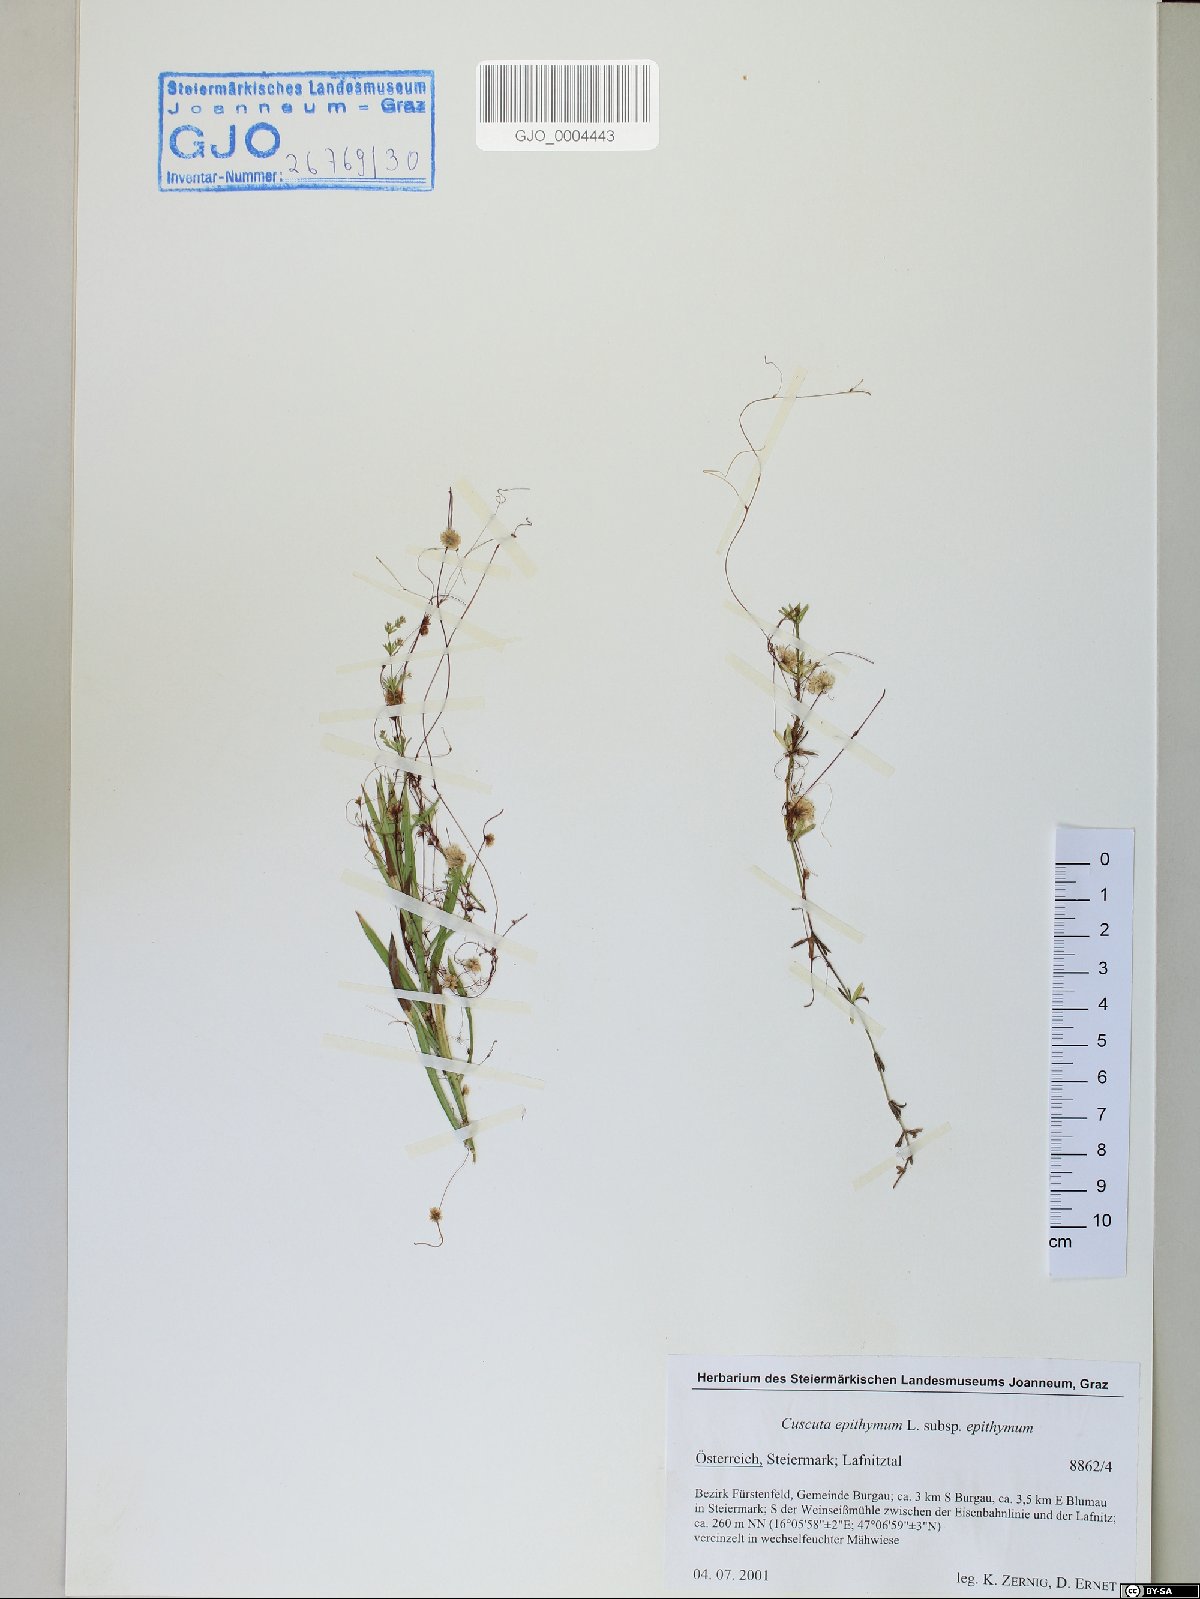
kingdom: Plantae
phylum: Tracheophyta
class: Magnoliopsida
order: Solanales
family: Convolvulaceae
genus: Cuscuta
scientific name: Cuscuta epithymum
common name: Clover dodder
